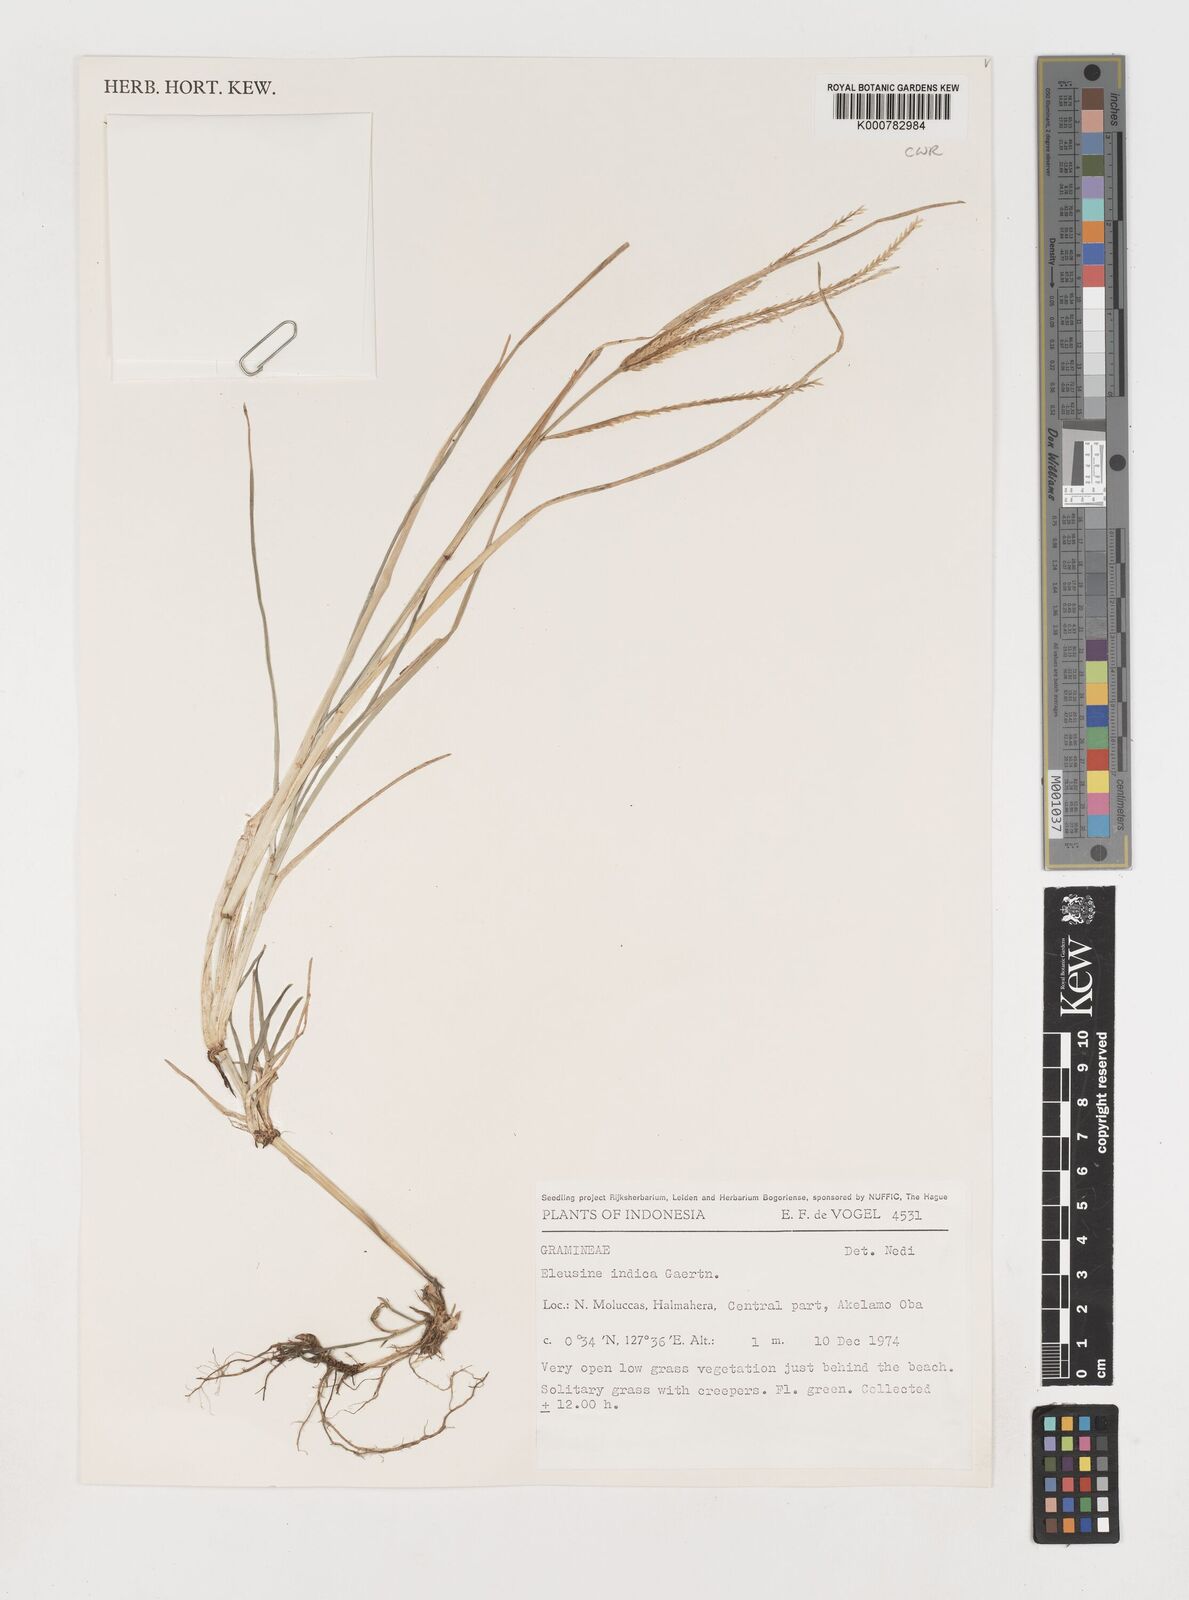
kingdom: Plantae
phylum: Tracheophyta
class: Liliopsida
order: Poales
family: Poaceae
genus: Eleusine
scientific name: Eleusine indica
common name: Yard-grass
